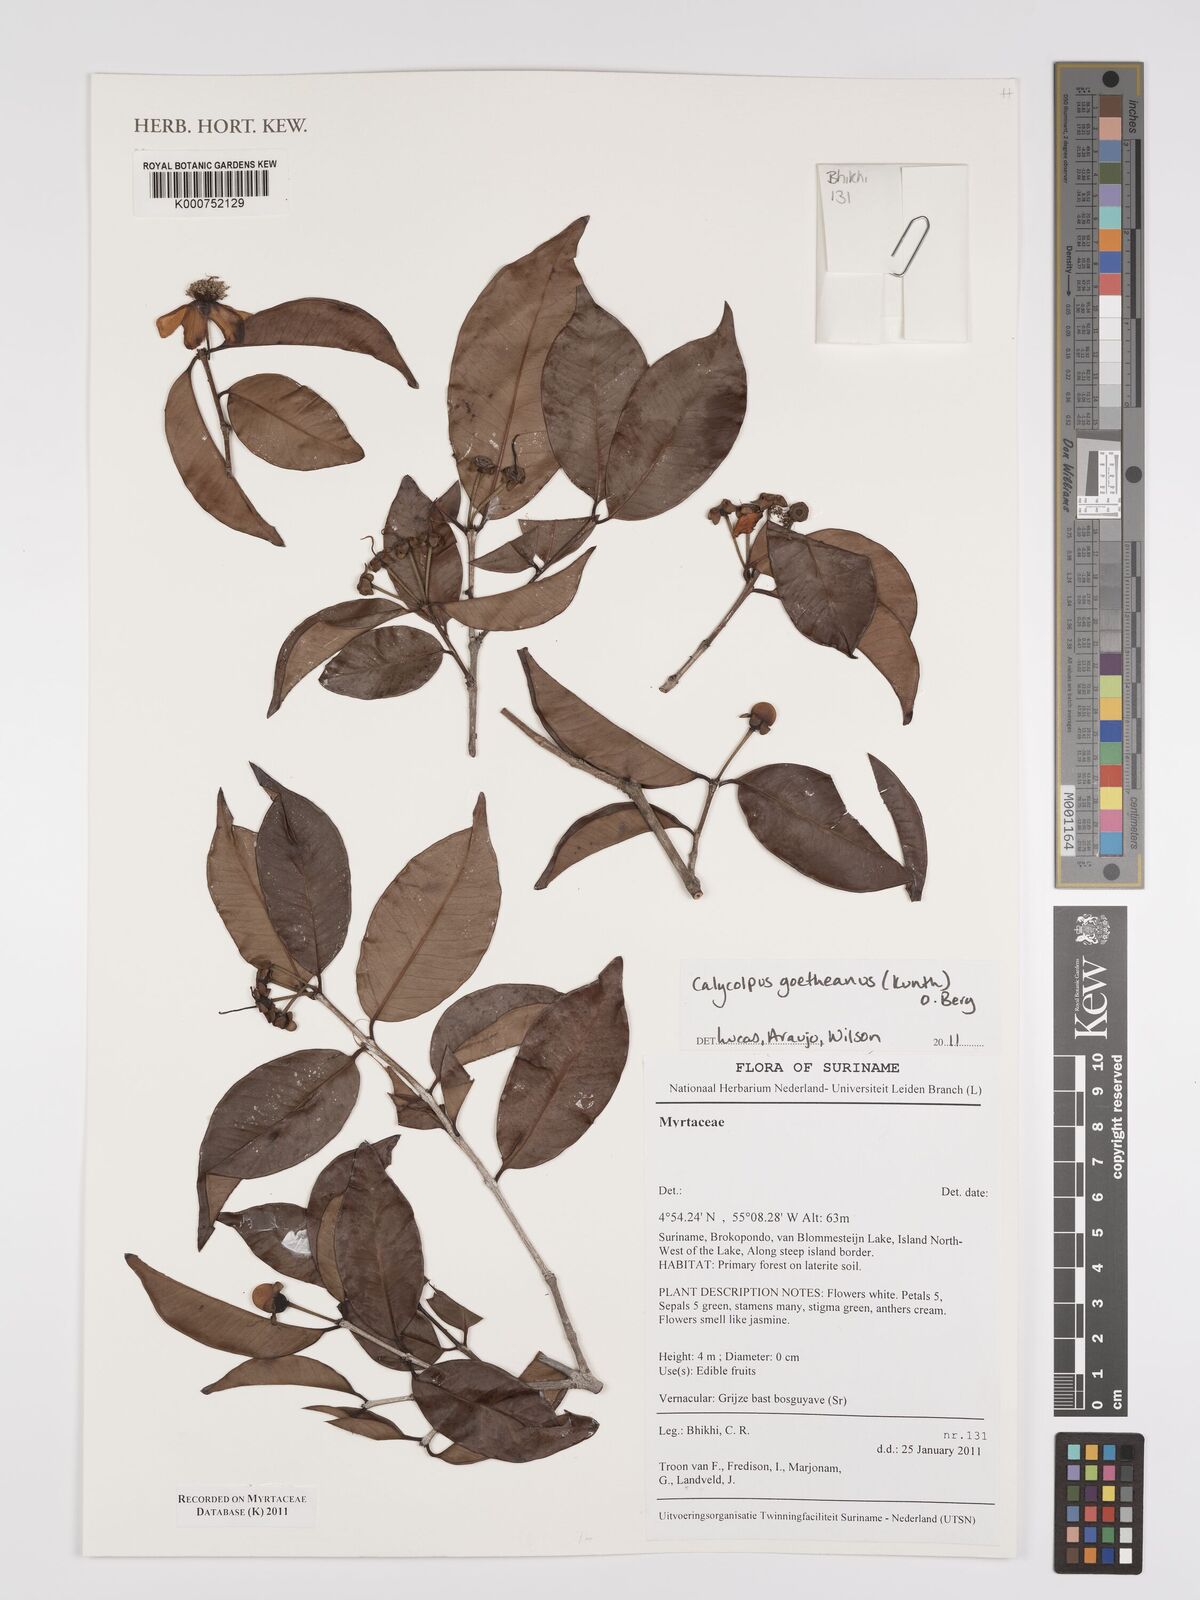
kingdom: Plantae
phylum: Tracheophyta
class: Magnoliopsida
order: Myrtales
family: Myrtaceae
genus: Calycolpus
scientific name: Calycolpus goetheanus
